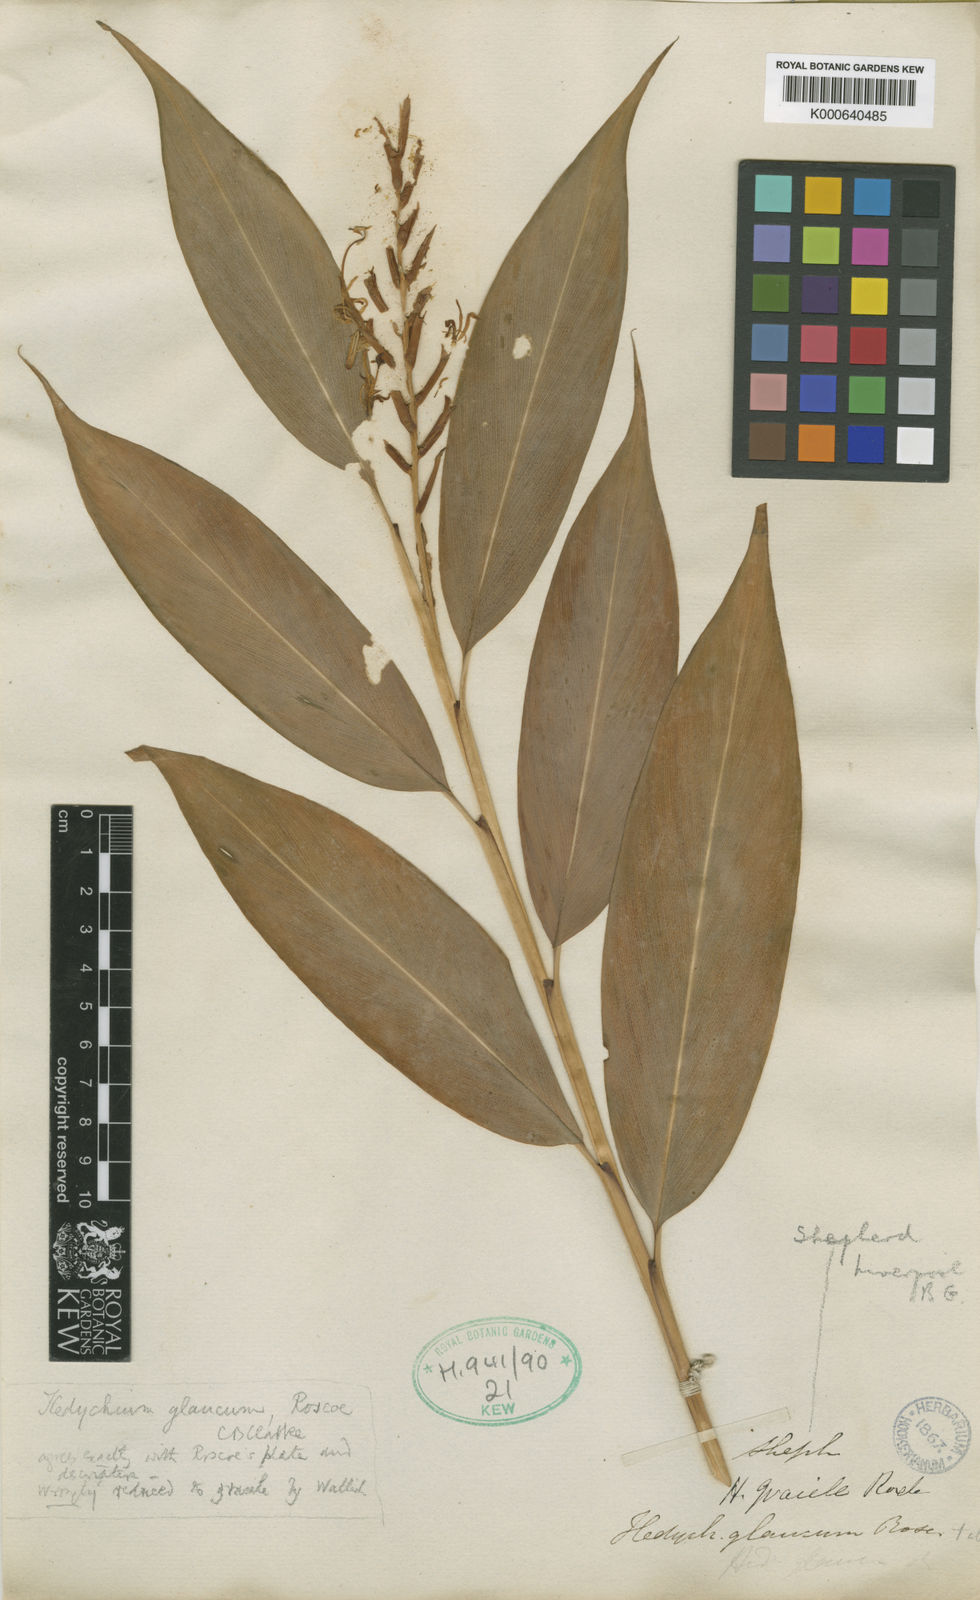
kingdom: Plantae
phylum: Tracheophyta
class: Liliopsida
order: Zingiberales
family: Zingiberaceae
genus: Hedychium
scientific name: Hedychium glaucum
